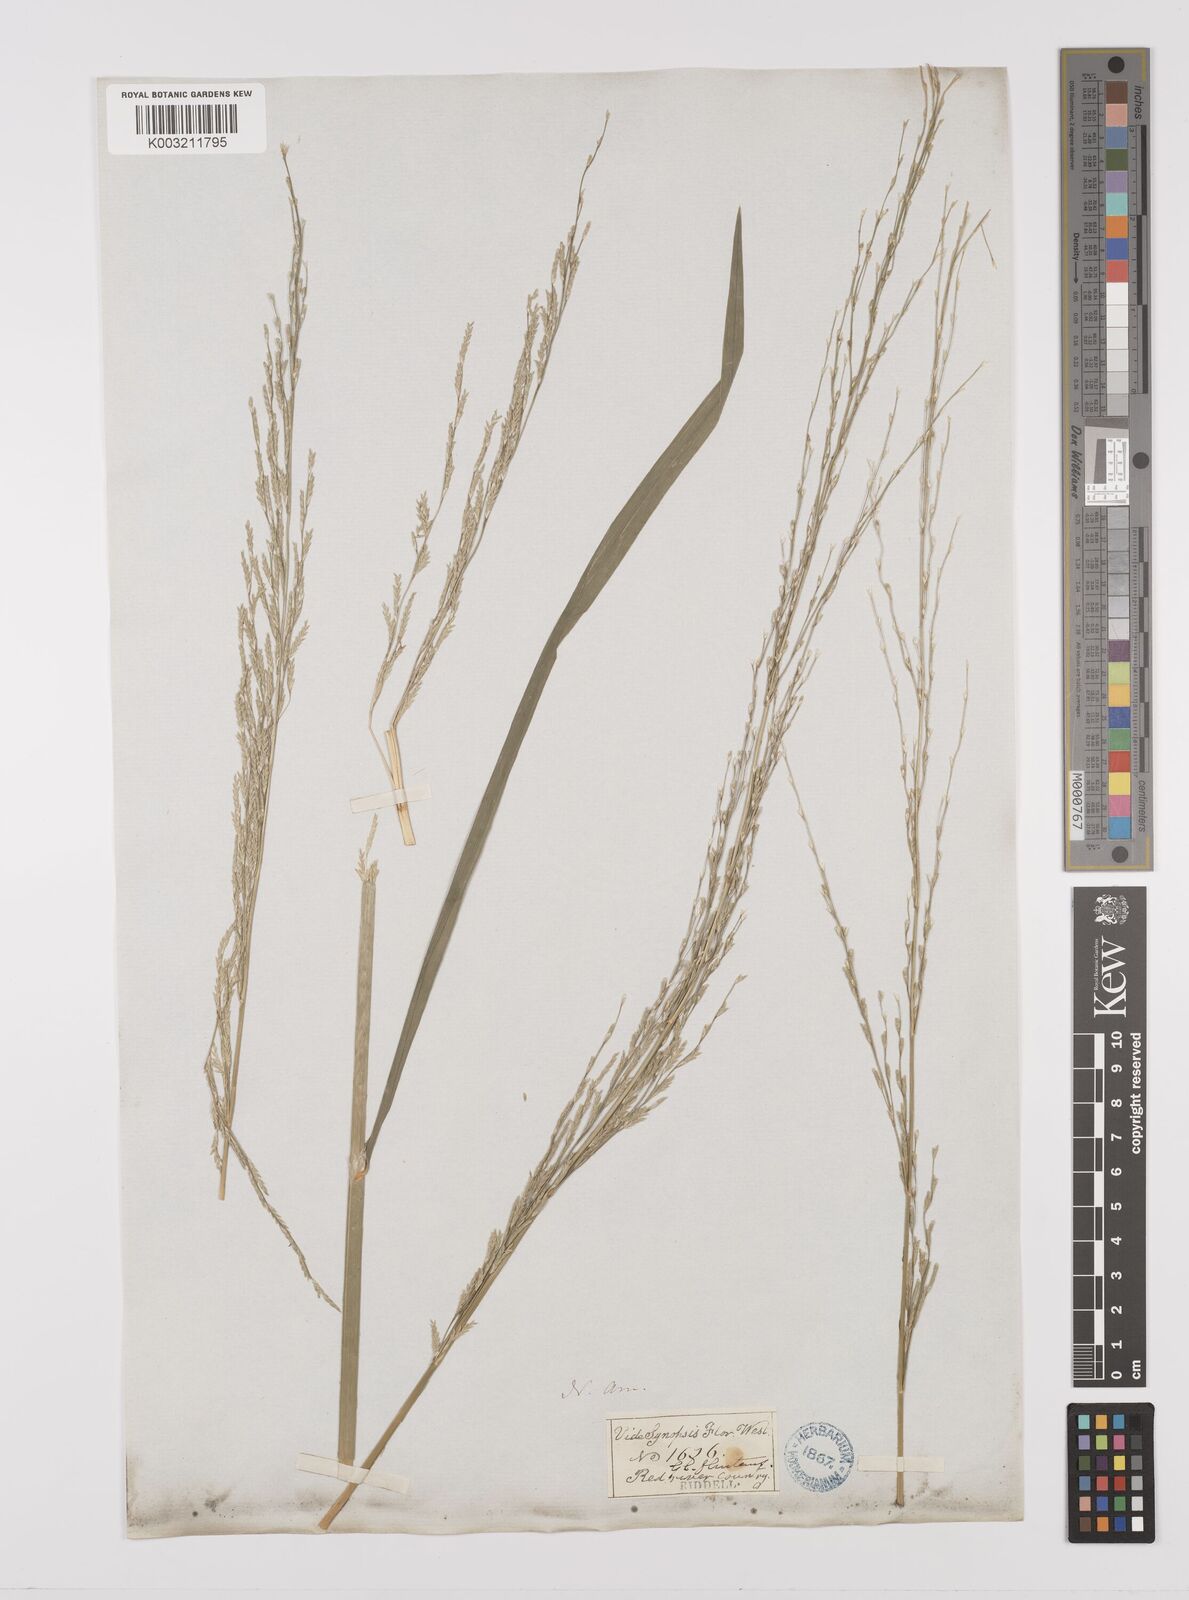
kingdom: Plantae
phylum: Tracheophyta
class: Liliopsida
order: Poales
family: Poaceae
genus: Glyceria
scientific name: Glyceria arkansana
